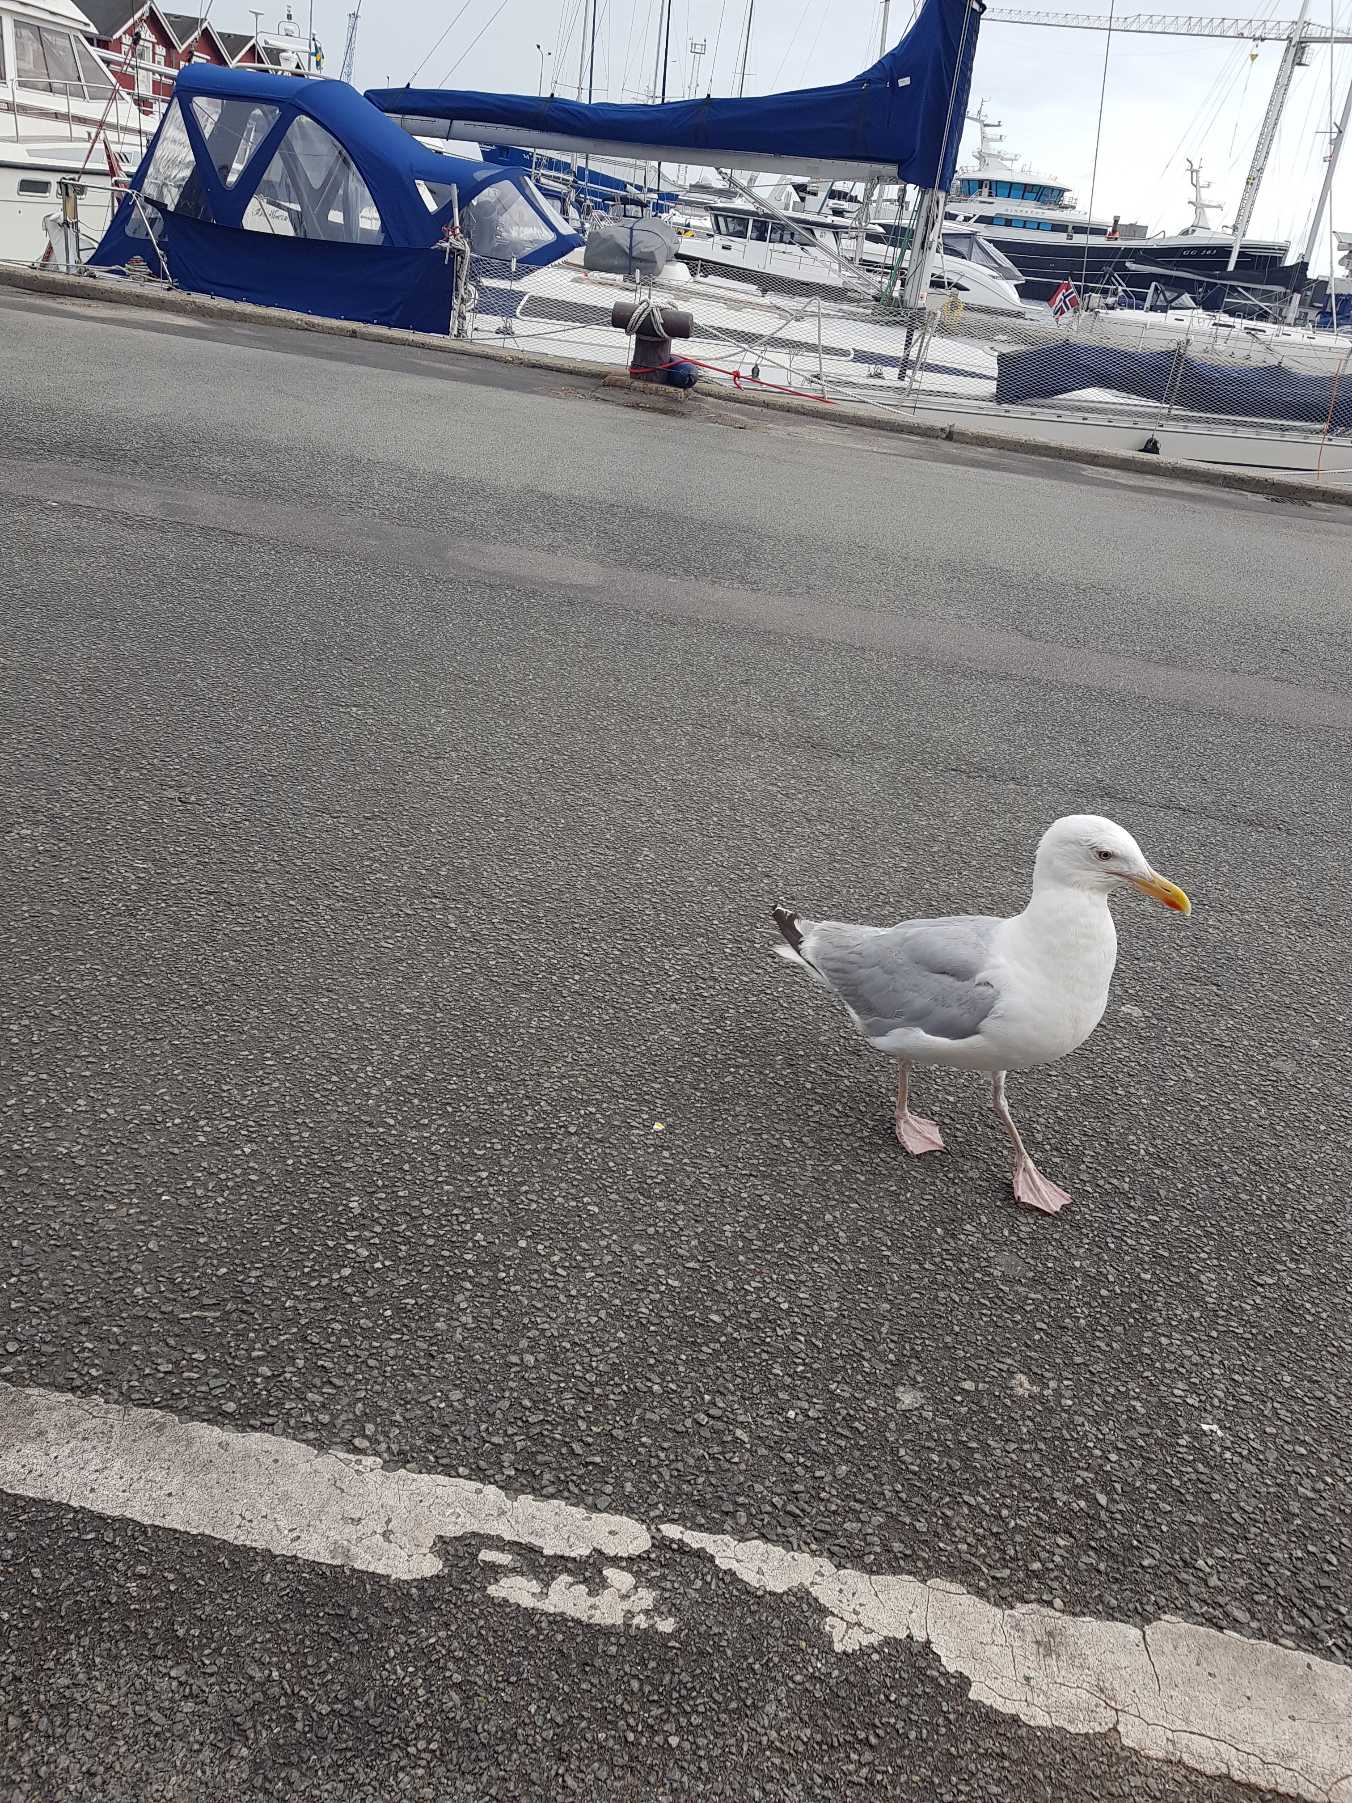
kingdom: Animalia
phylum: Chordata
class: Aves
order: Charadriiformes
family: Laridae
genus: Larus
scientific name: Larus argentatus
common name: Sølvmåge
